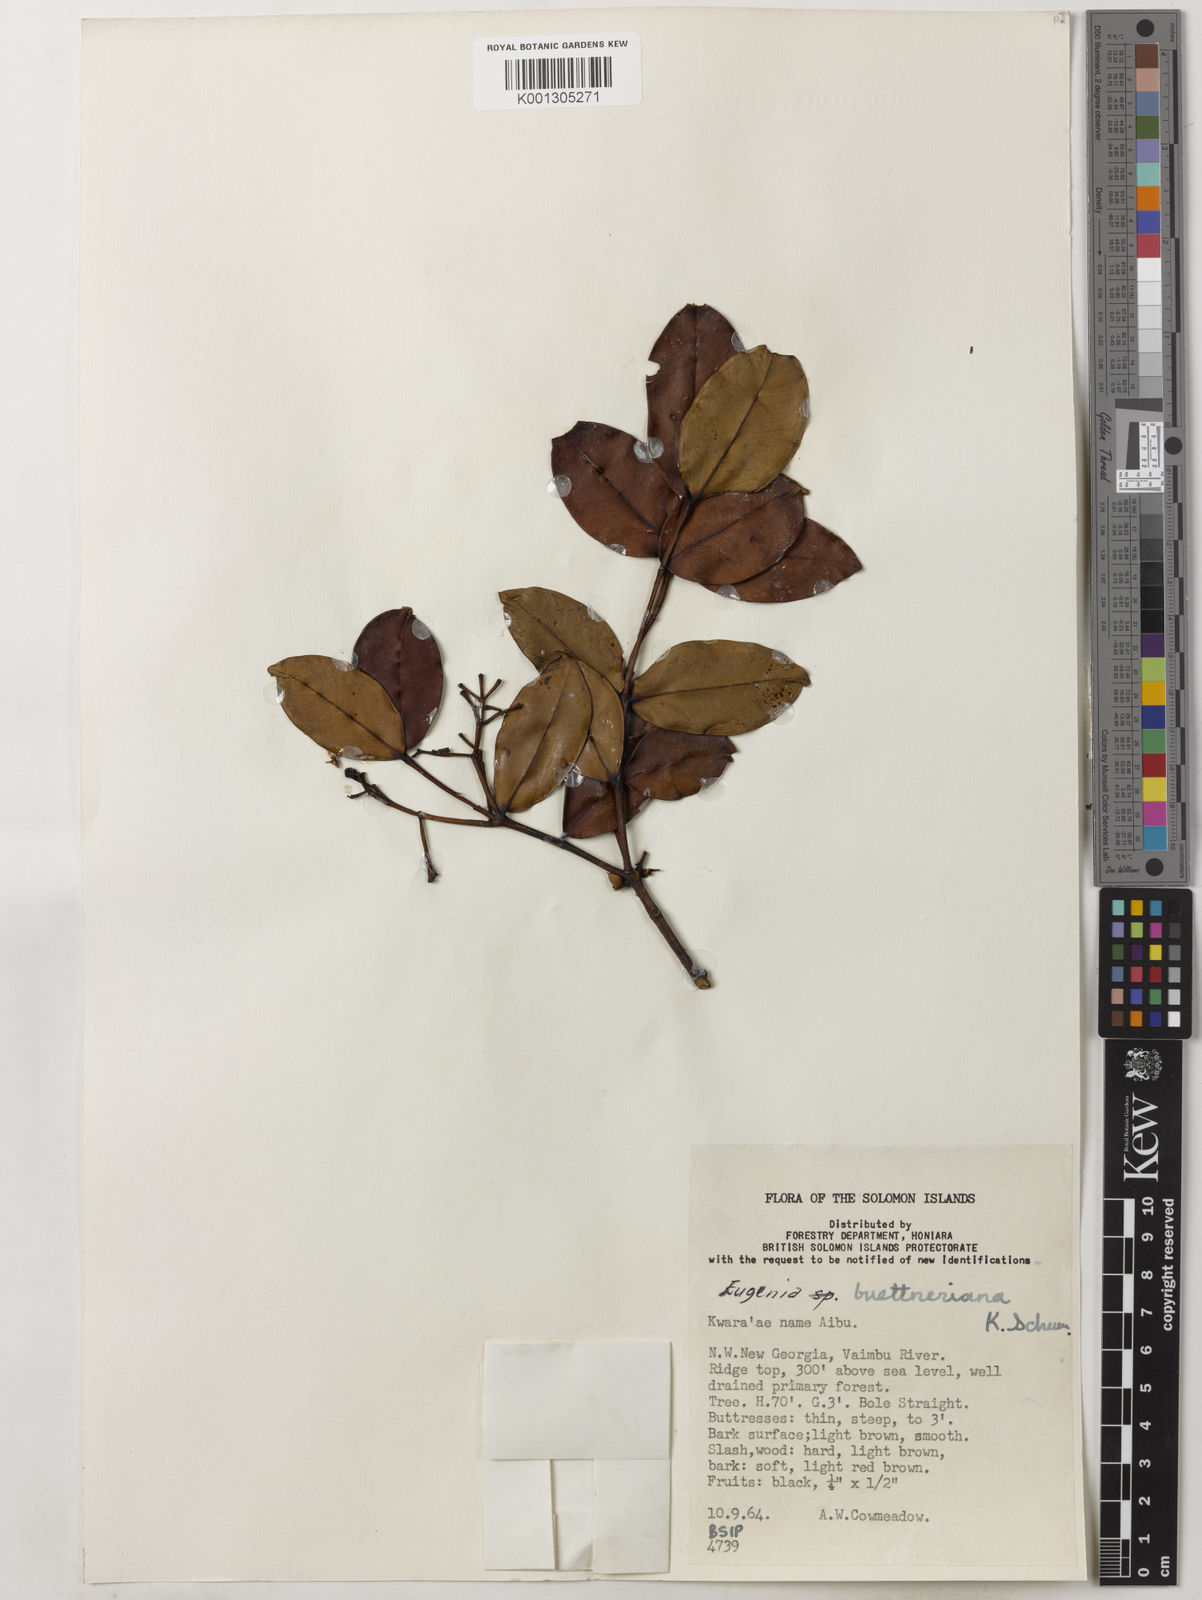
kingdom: Plantae
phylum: Tracheophyta
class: Magnoliopsida
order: Myrtales
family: Myrtaceae
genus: Syzygium
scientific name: Syzygium buettnerianum
